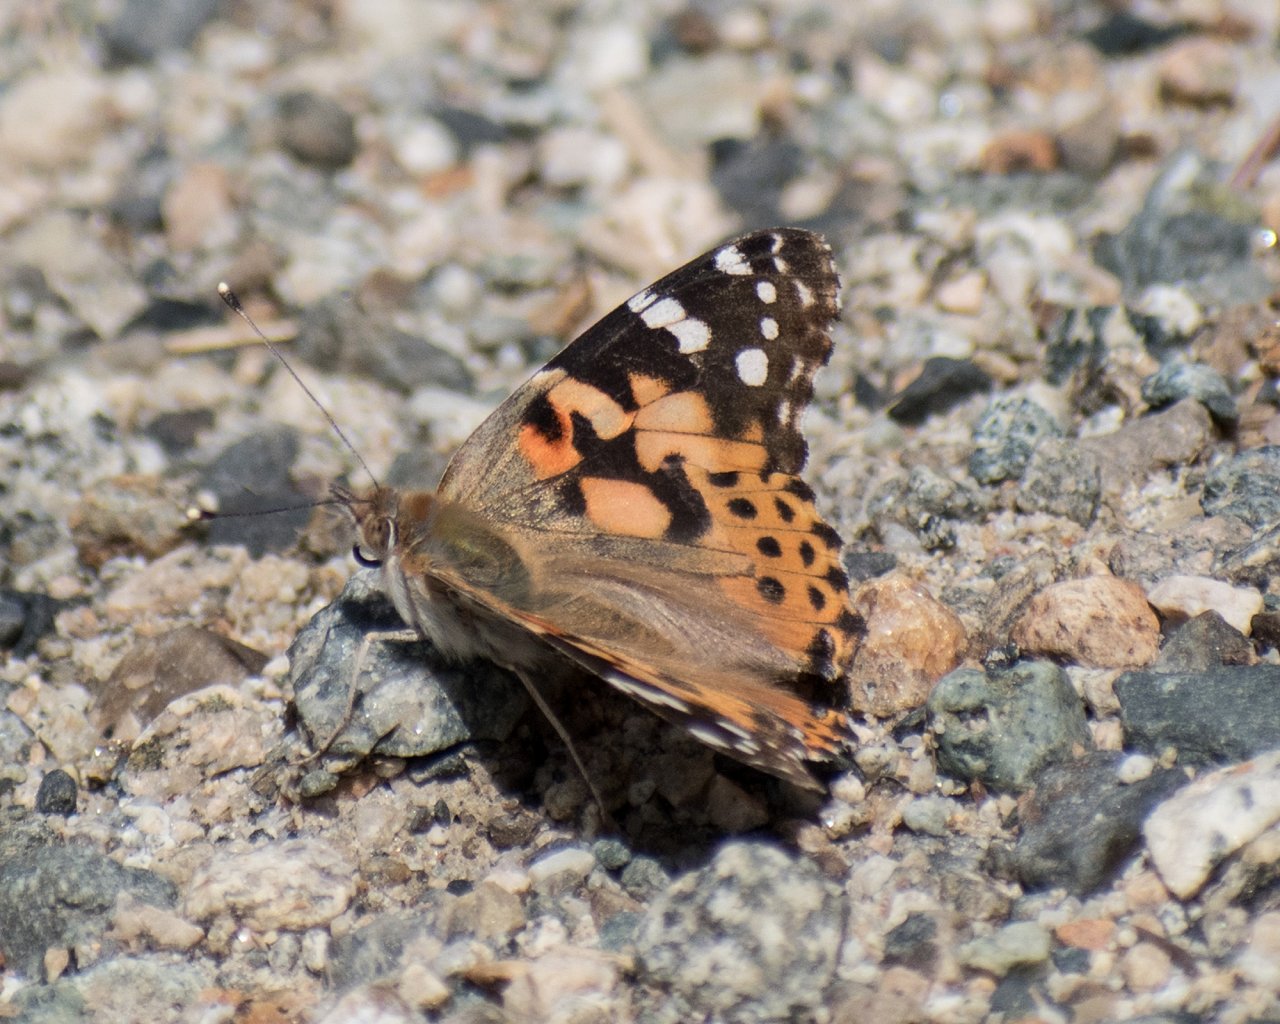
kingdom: Animalia
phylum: Arthropoda
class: Insecta
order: Lepidoptera
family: Nymphalidae
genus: Vanessa
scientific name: Vanessa cardui
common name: Painted Lady
